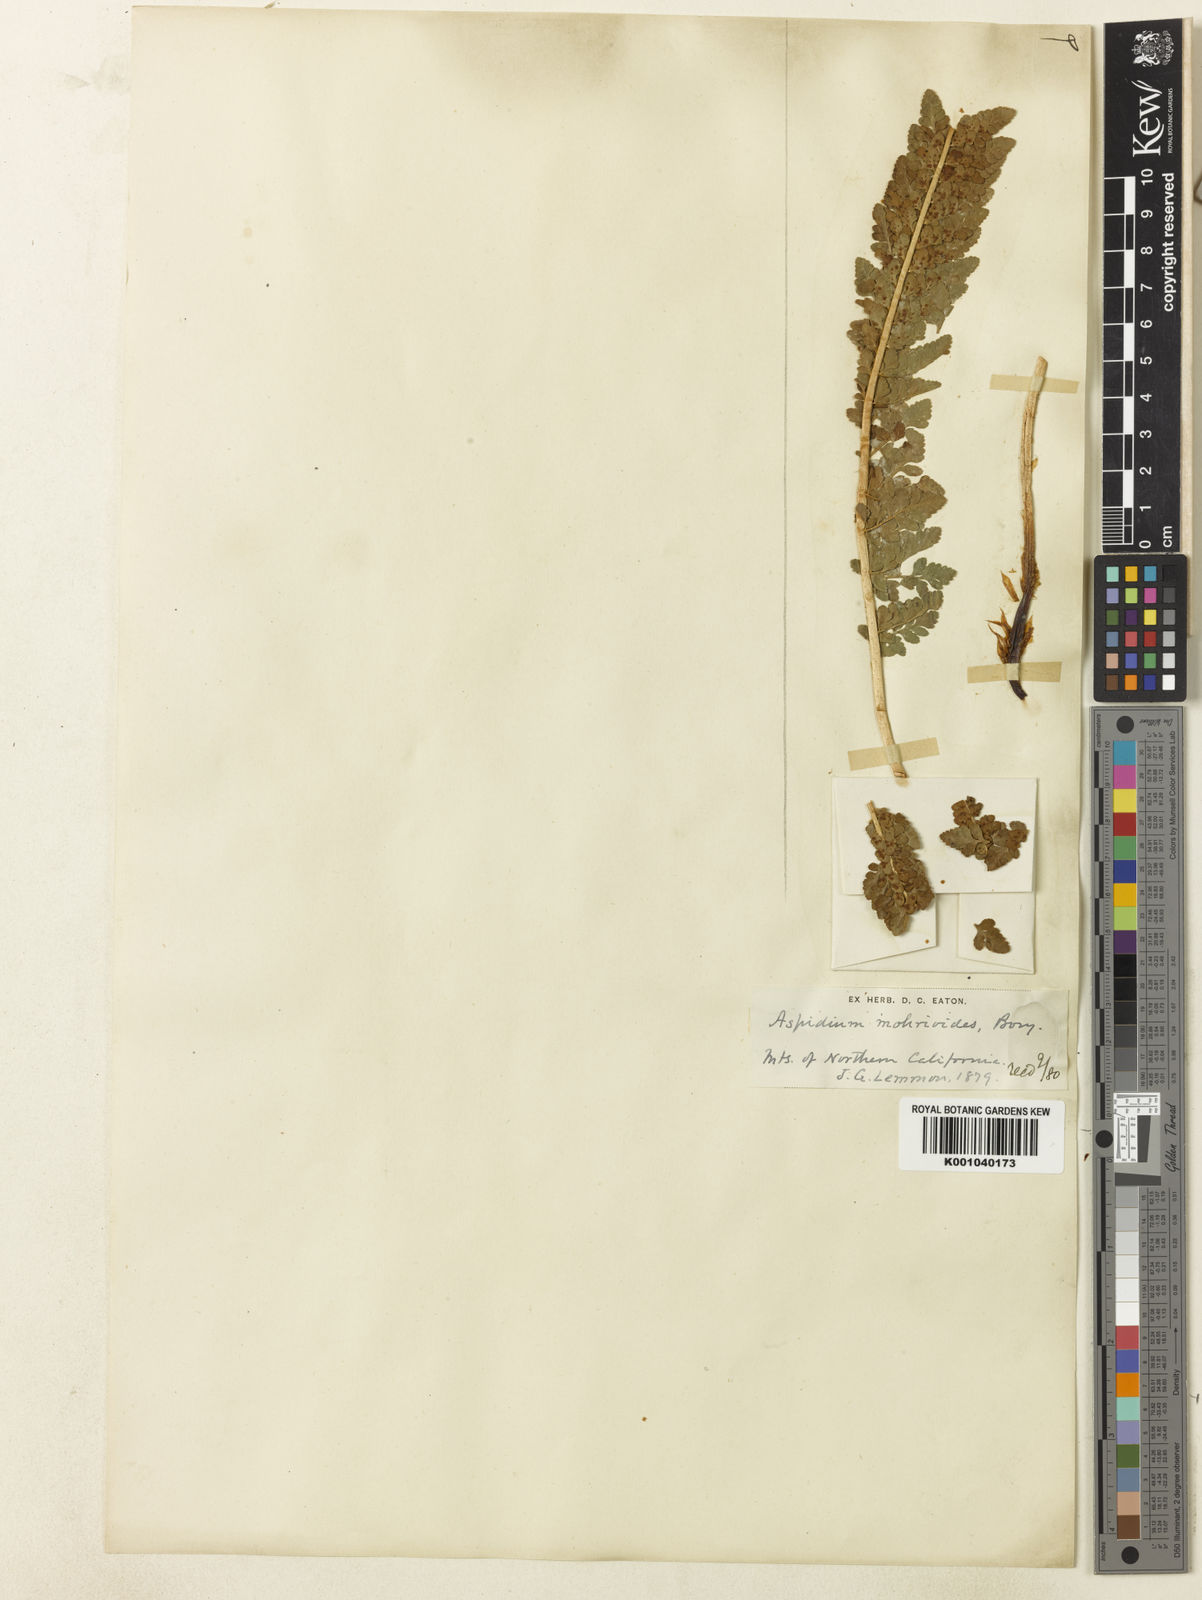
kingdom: Plantae
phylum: Tracheophyta
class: Polypodiopsida
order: Polypodiales
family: Dryopteridaceae
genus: Polystichum
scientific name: Polystichum lemmonii
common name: Lemmon's holly fern
